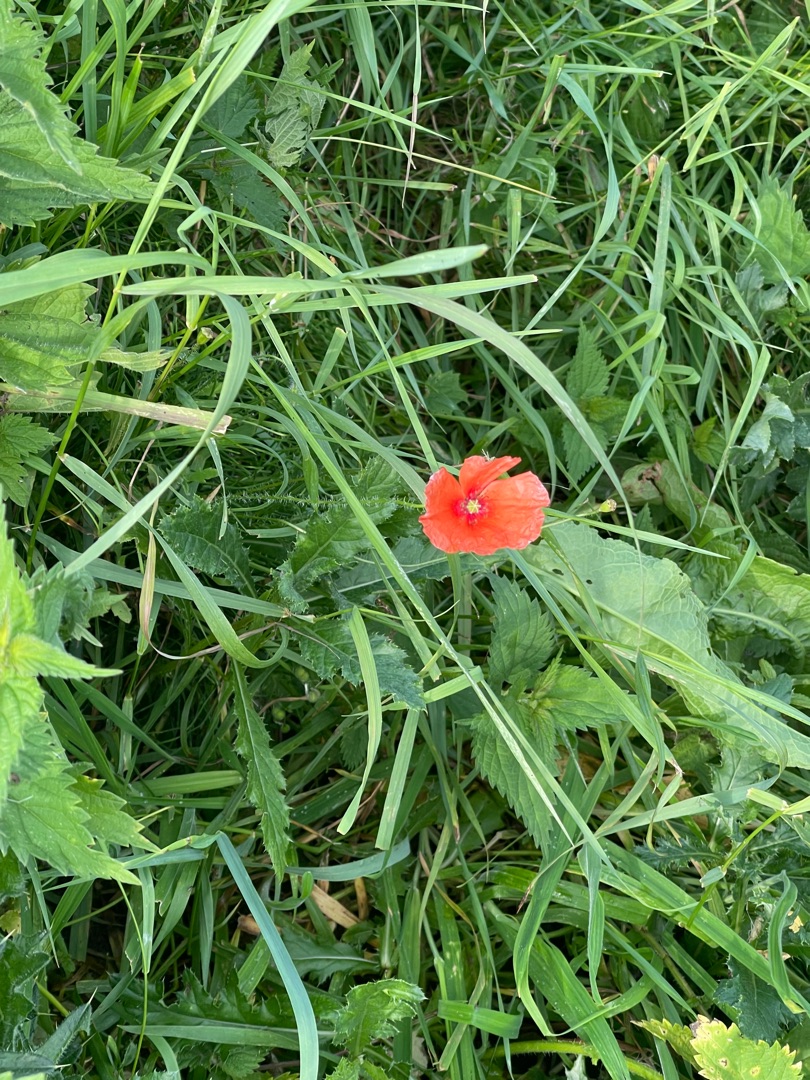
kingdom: Plantae
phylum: Tracheophyta
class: Magnoliopsida
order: Ranunculales
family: Papaveraceae
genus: Papaver
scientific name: Papaver rhoeas
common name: Korn-valmue
